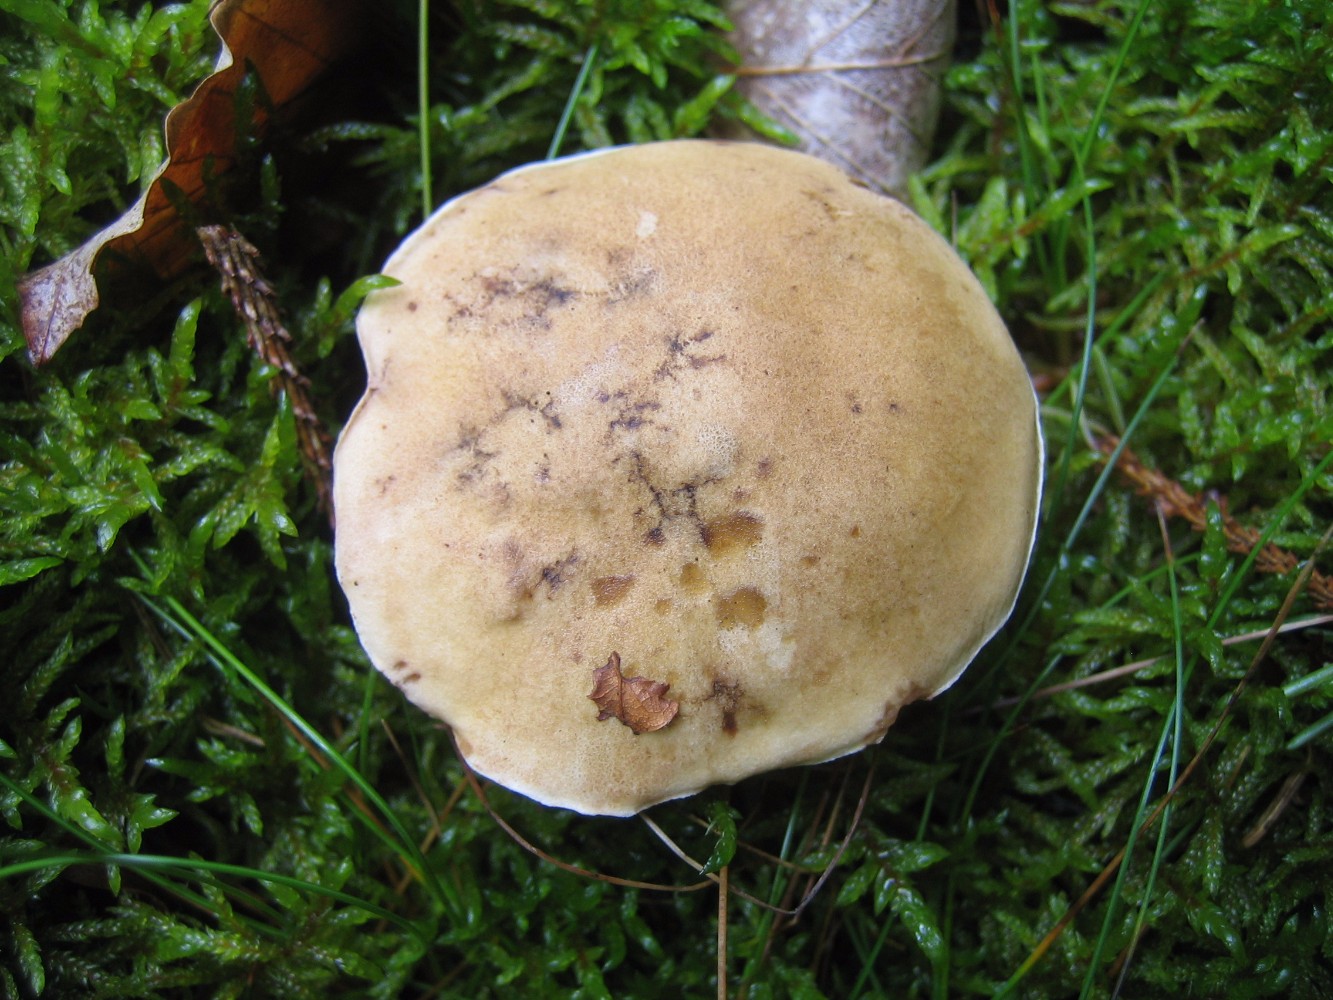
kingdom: Fungi
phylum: Basidiomycota
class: Agaricomycetes
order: Boletales
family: Boletaceae
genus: Tylopilus
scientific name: Tylopilus felleus
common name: galderørhat
